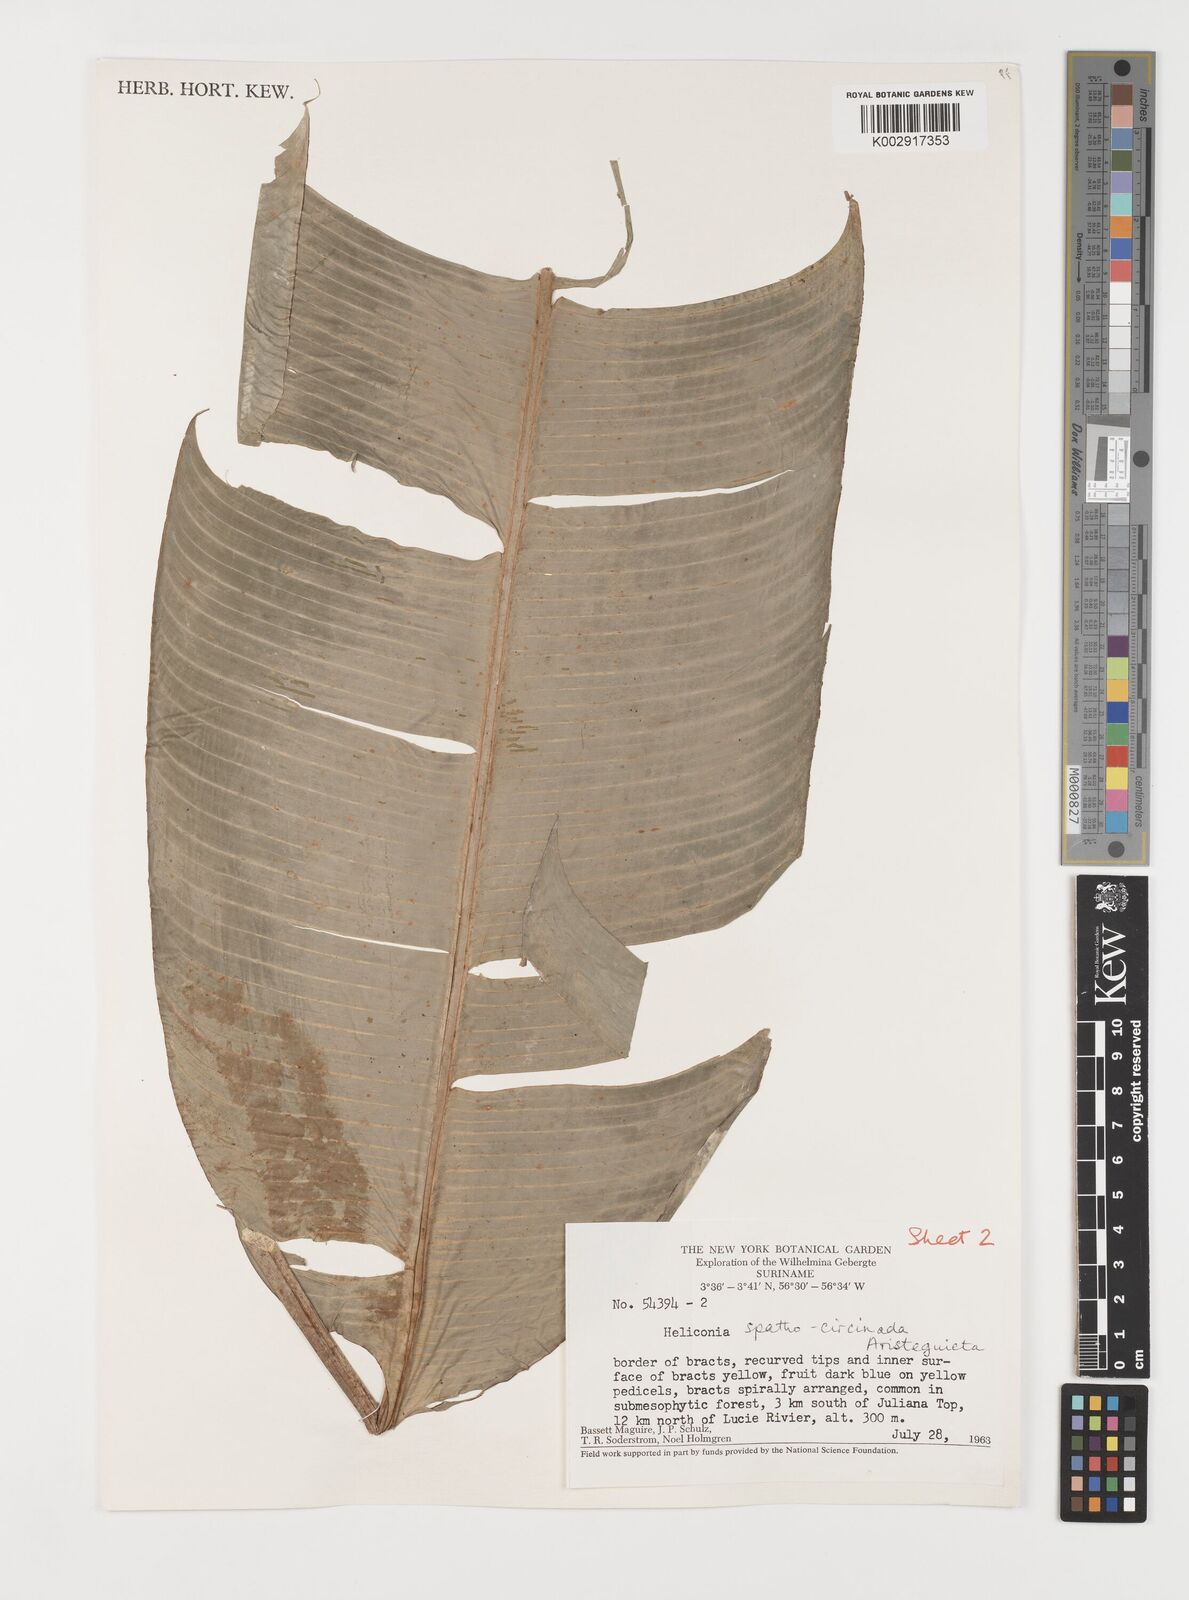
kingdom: Plantae
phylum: Tracheophyta
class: Liliopsida
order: Zingiberales
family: Heliconiaceae
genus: Heliconia
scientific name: Heliconia spathocircinata
